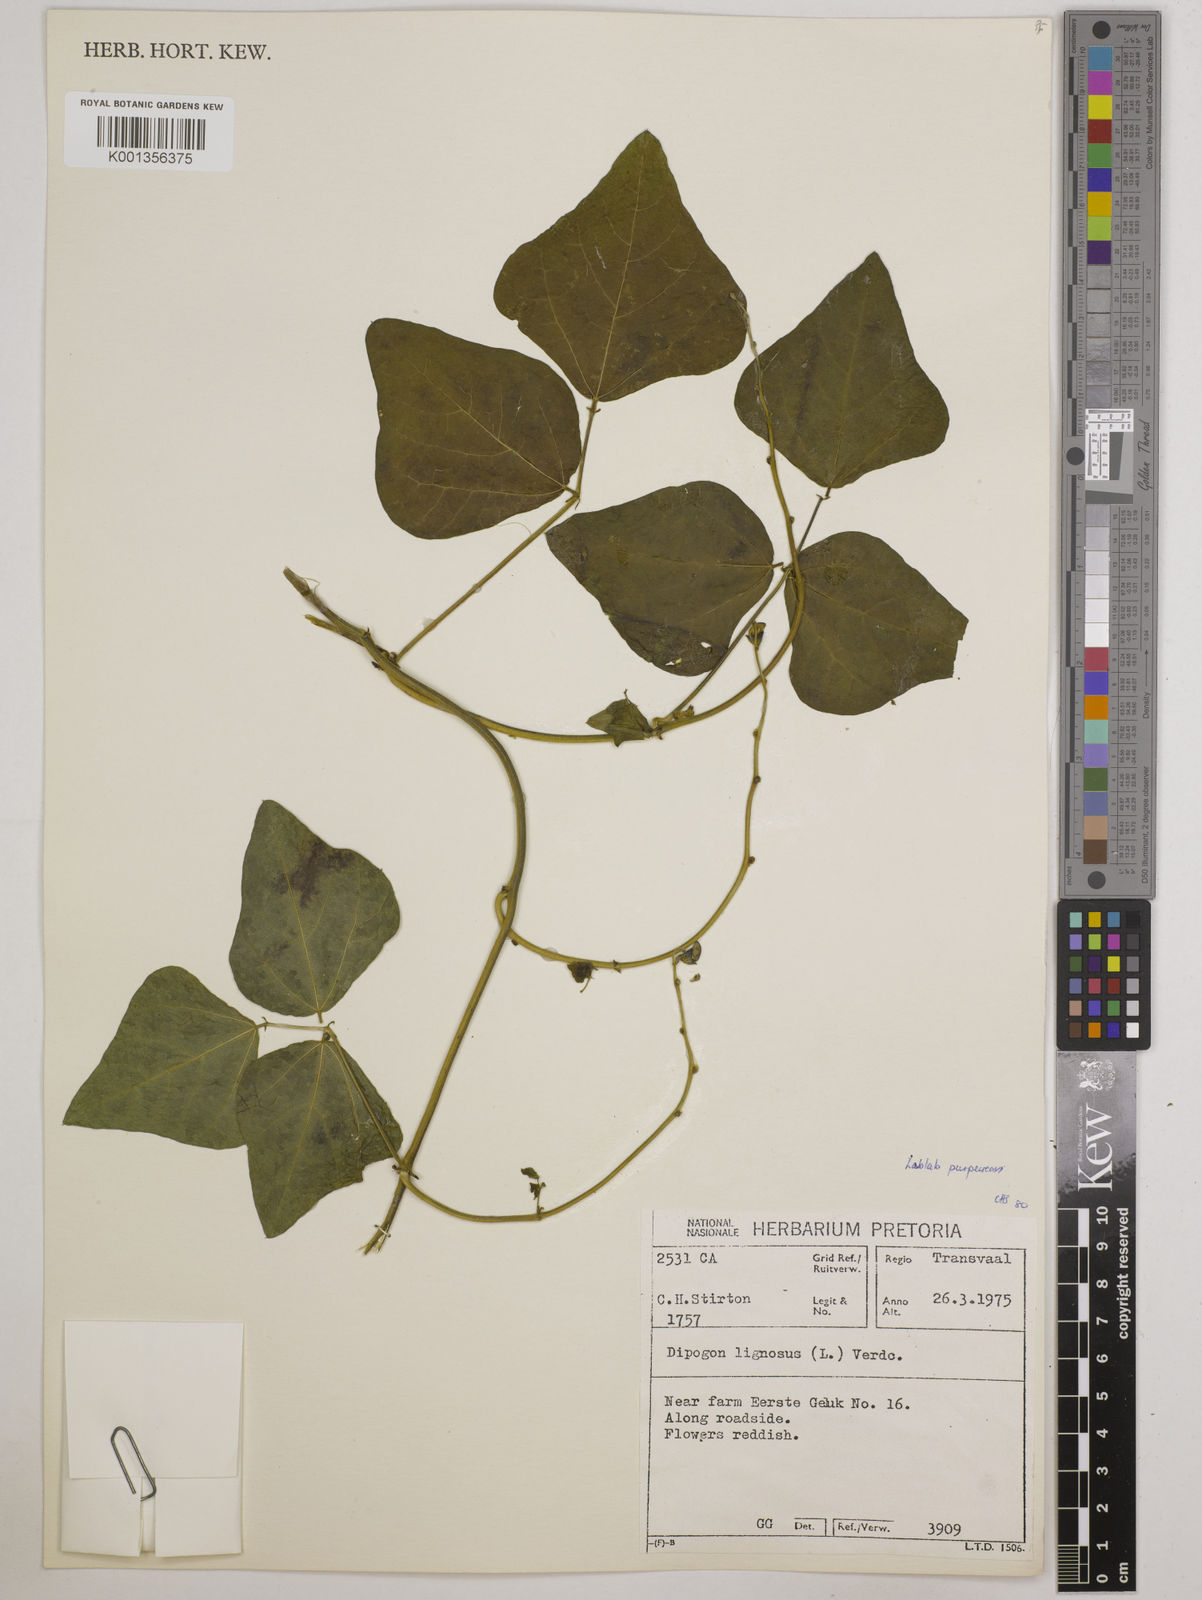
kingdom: Plantae
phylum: Tracheophyta
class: Magnoliopsida
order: Fabales
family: Fabaceae
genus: Lablab
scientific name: Lablab purpureus
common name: Lablab-bean
